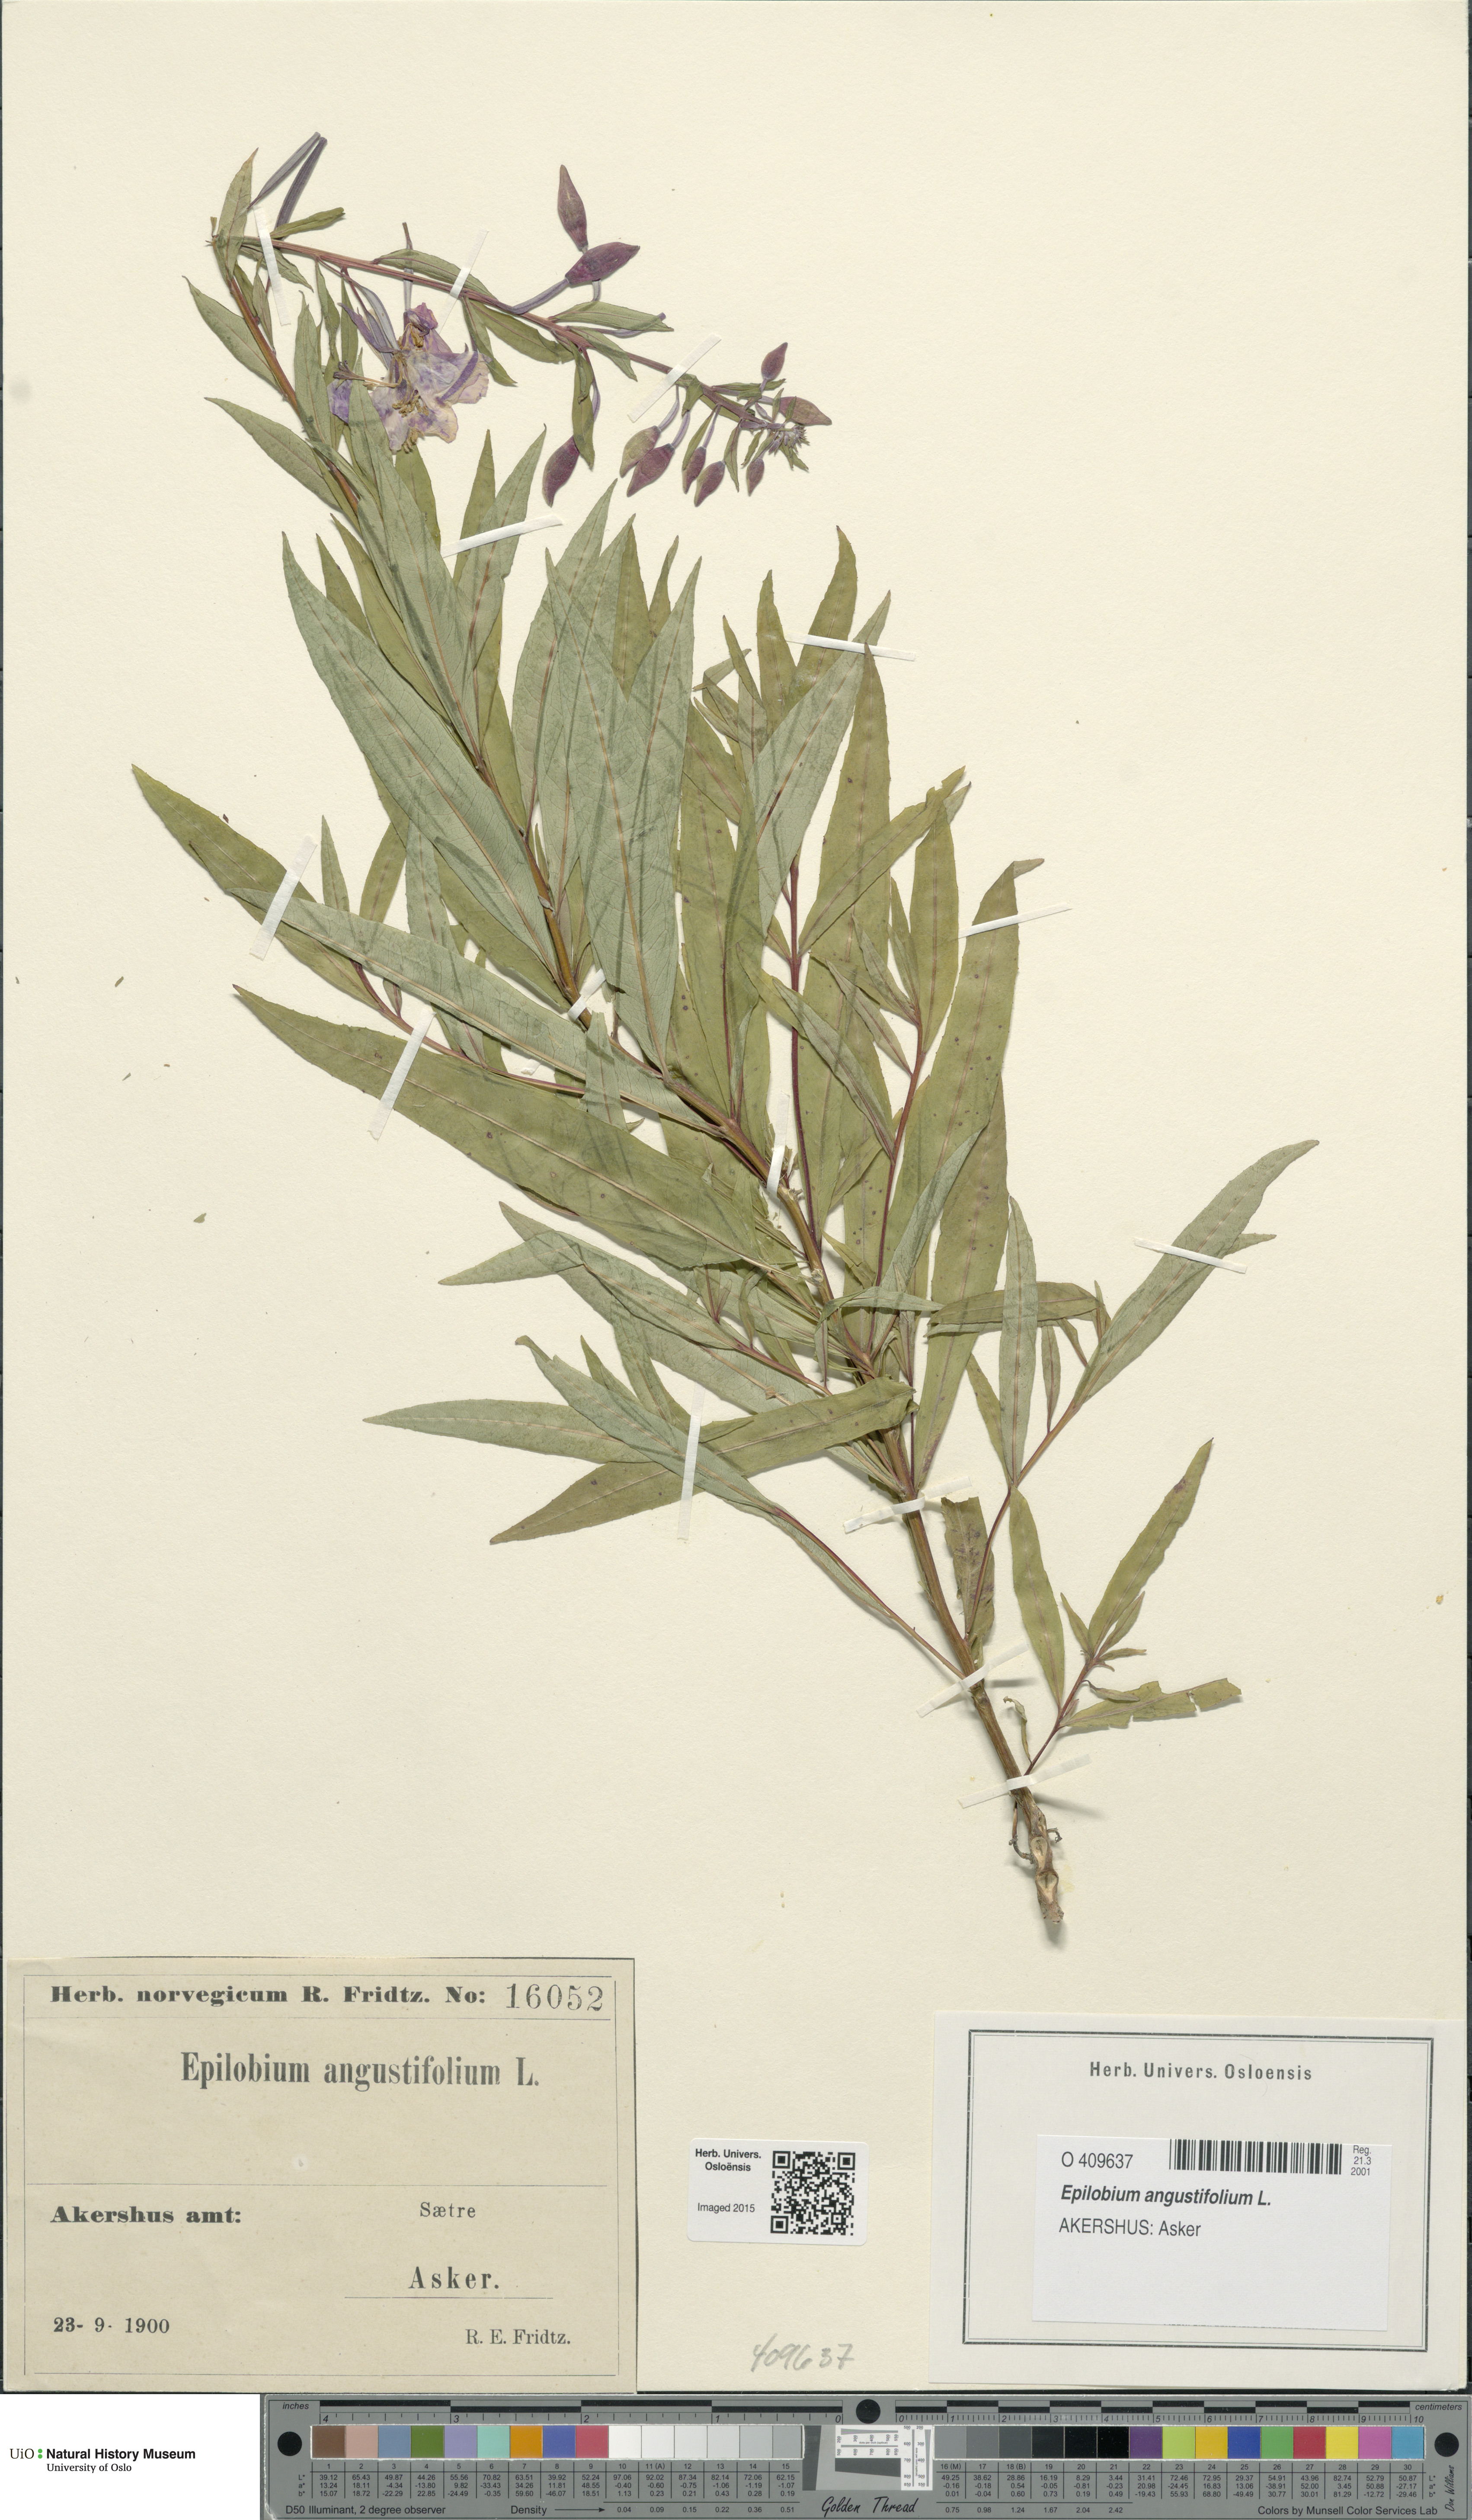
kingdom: Plantae
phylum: Tracheophyta
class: Magnoliopsida
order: Myrtales
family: Onagraceae
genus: Chamaenerion
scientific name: Chamaenerion angustifolium
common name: Fireweed
